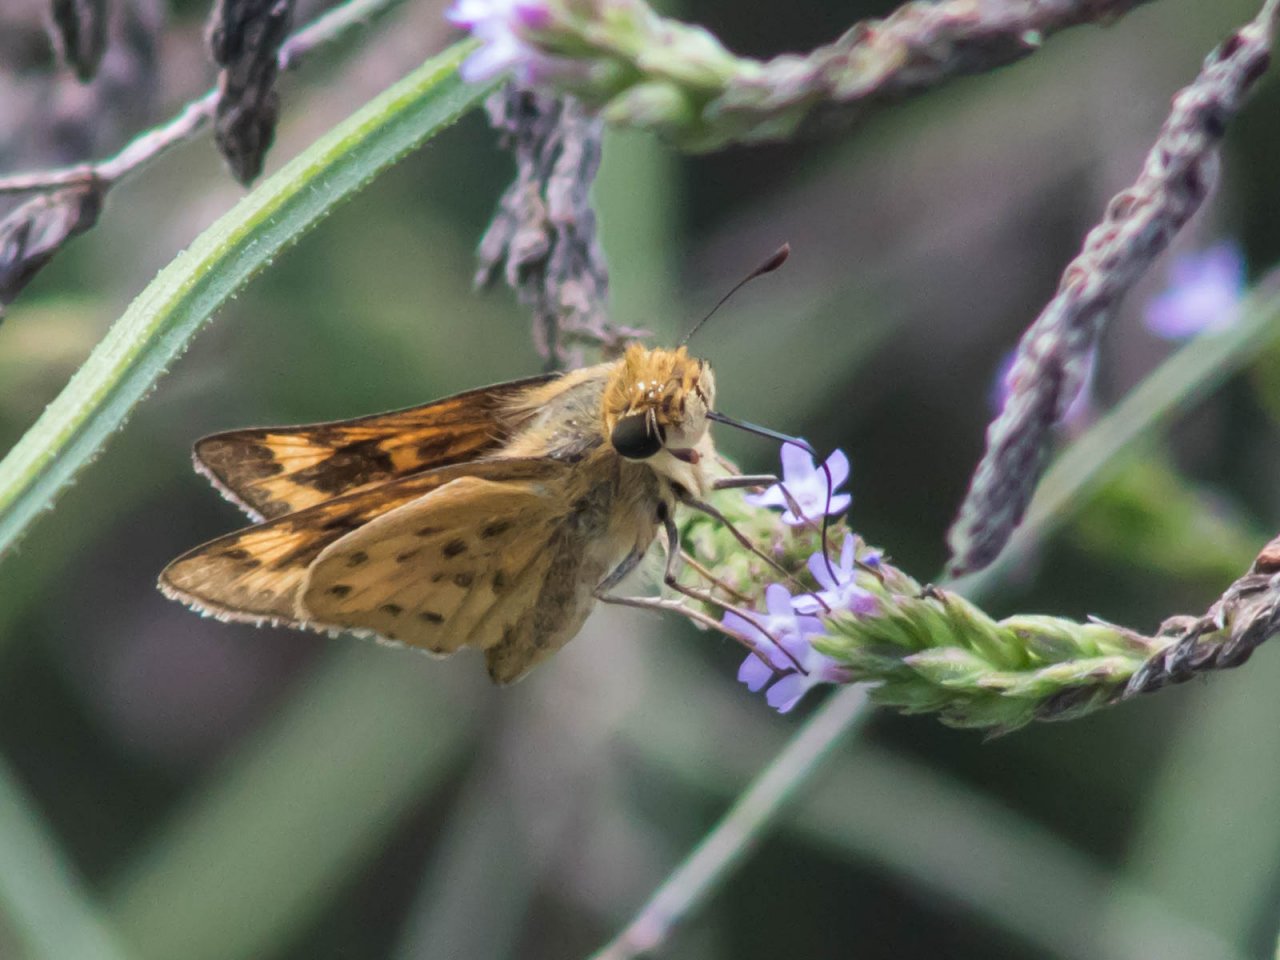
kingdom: Animalia
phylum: Arthropoda
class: Insecta
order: Lepidoptera
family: Hesperiidae
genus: Hylephila
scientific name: Hylephila phyleus
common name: Fiery Skipper
